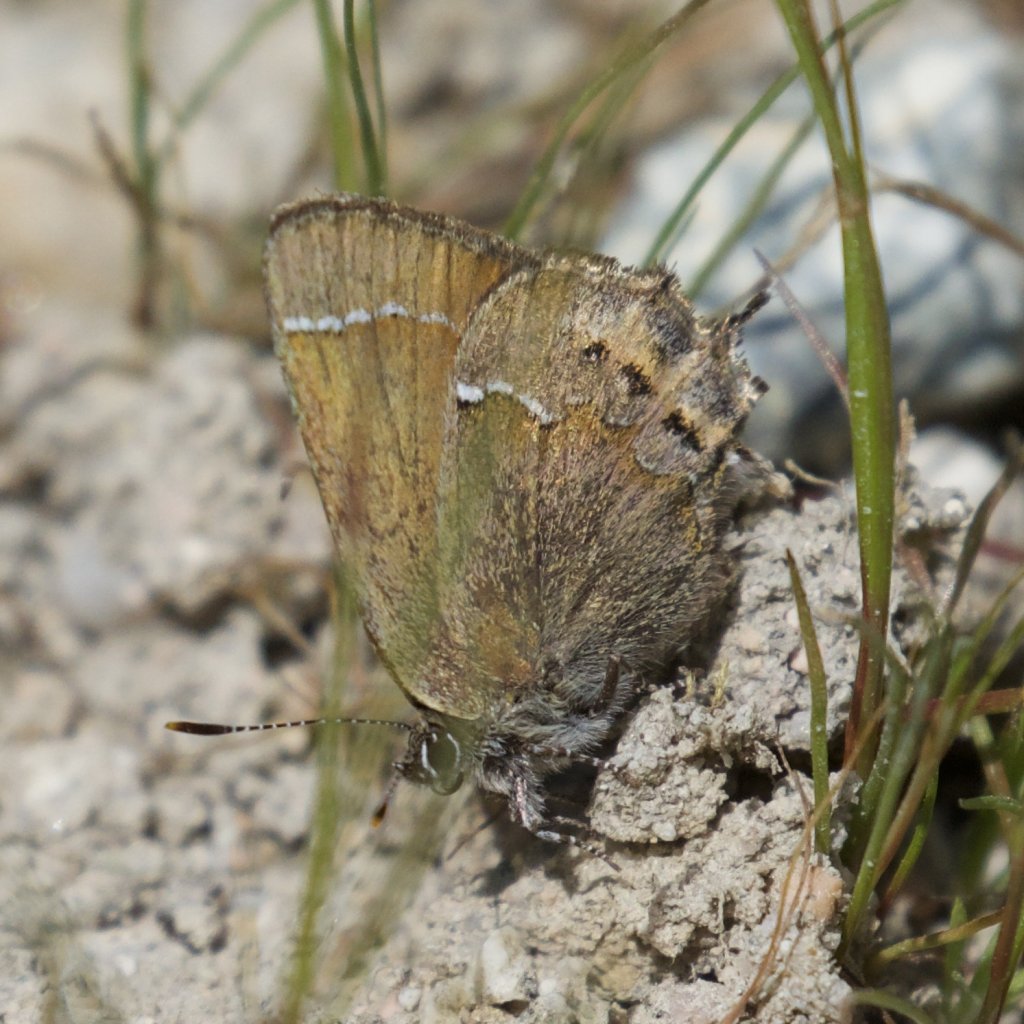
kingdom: Animalia
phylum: Arthropoda
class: Insecta
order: Lepidoptera
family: Lycaenidae
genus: Mitoura
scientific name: Mitoura gryneus
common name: Juniper Hairstreak
